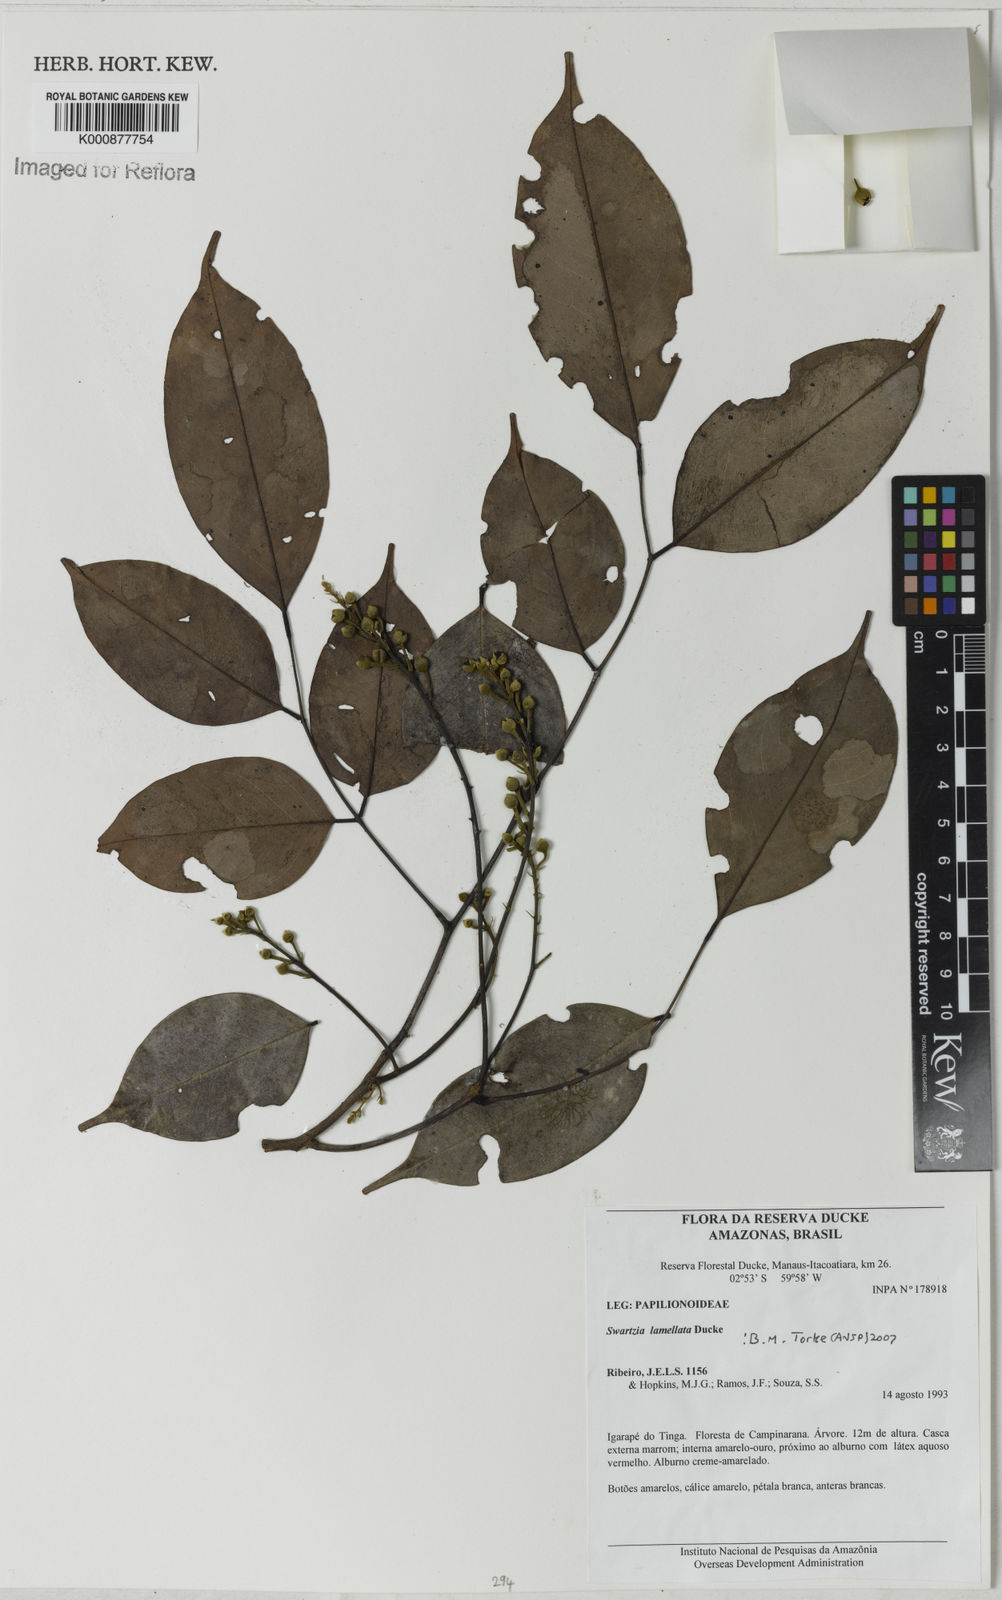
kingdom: Plantae
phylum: Tracheophyta
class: Magnoliopsida
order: Fabales
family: Fabaceae
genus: Swartzia
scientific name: Swartzia lamellata
